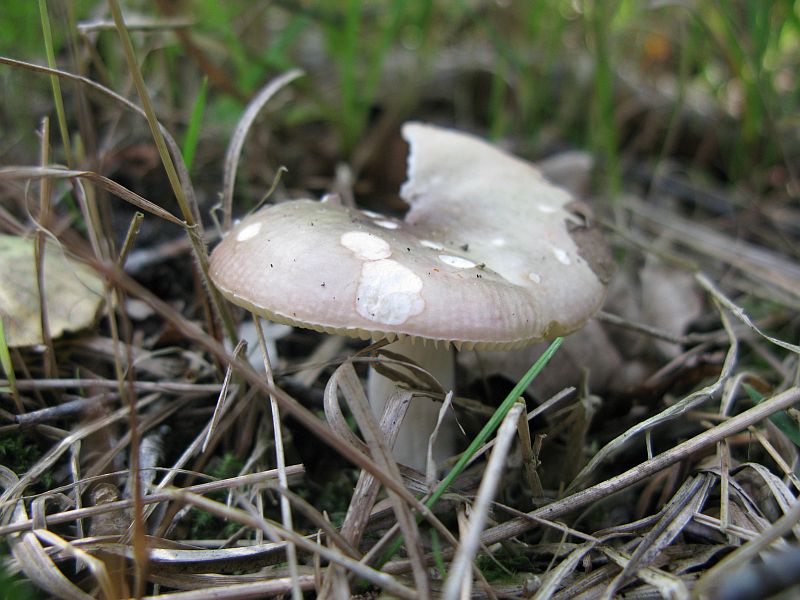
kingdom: Fungi
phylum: Basidiomycota
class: Agaricomycetes
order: Russulales
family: Russulaceae
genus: Russula
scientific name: Russula
